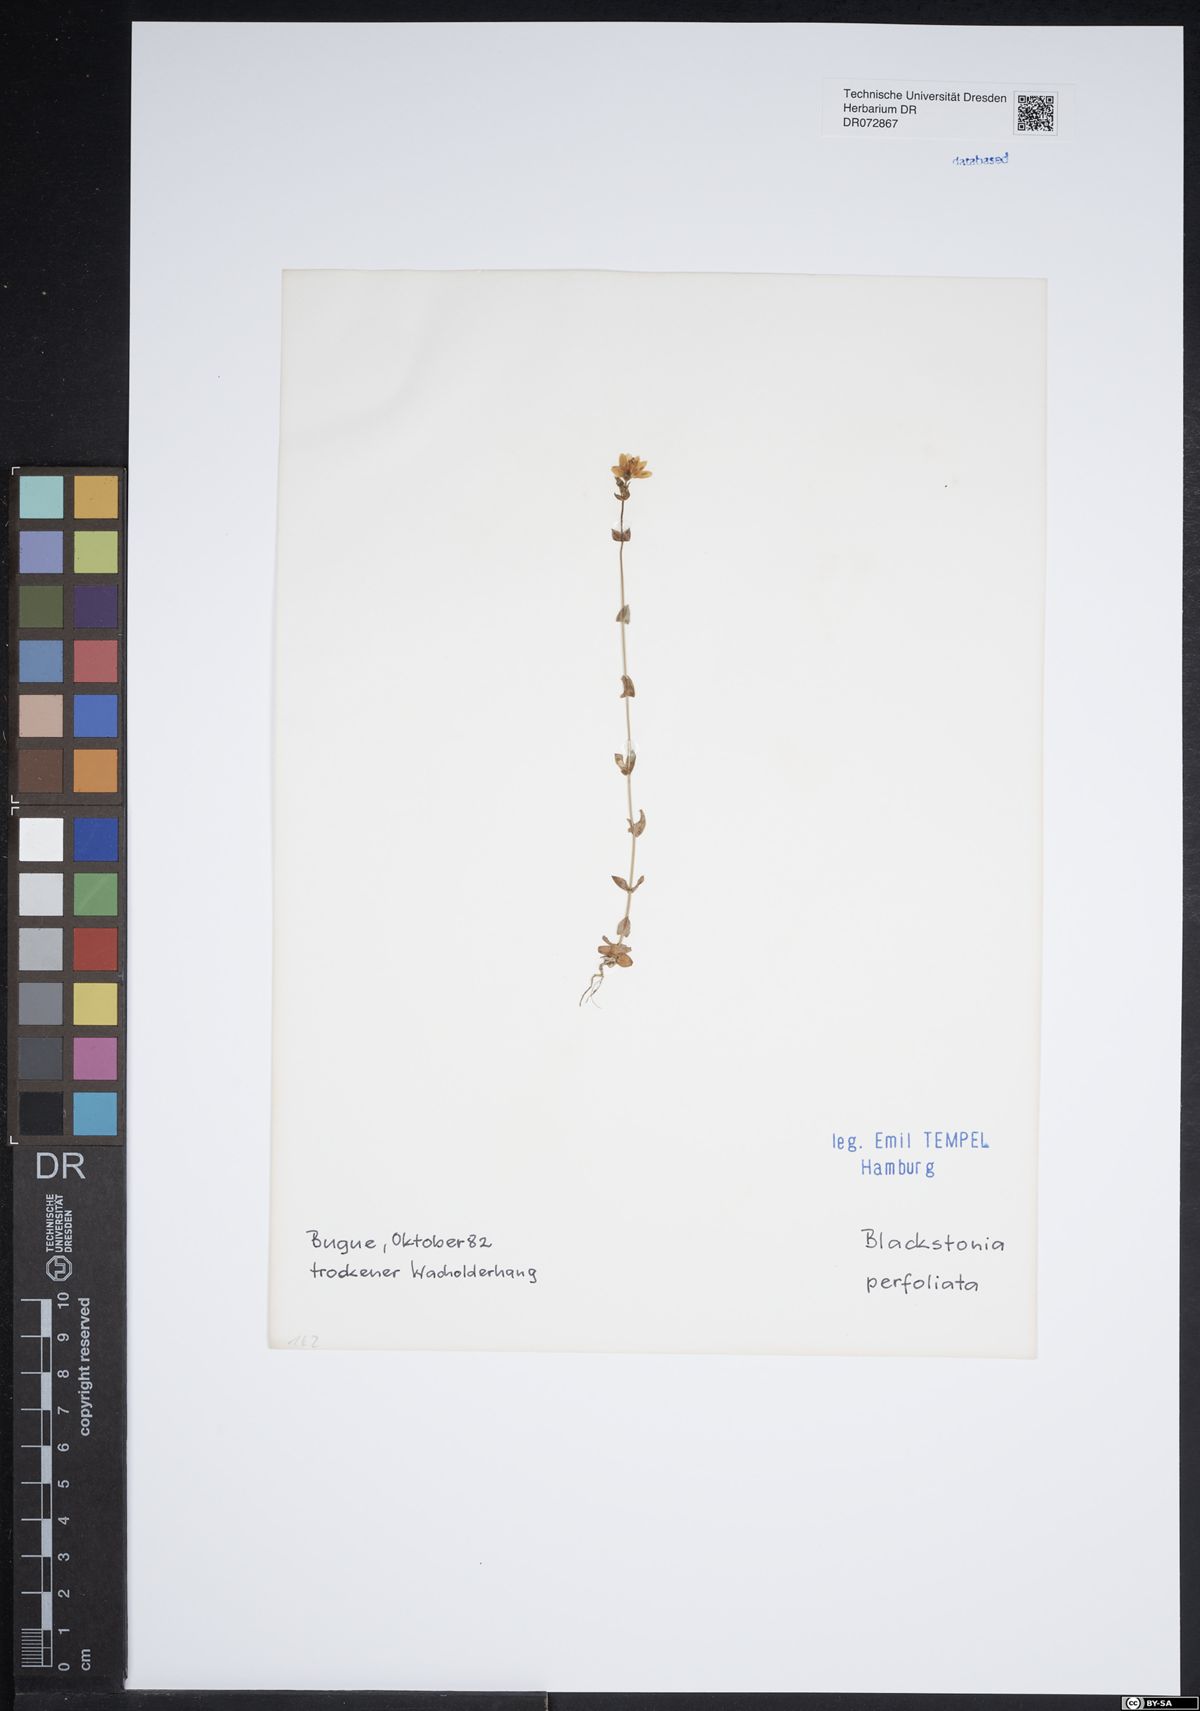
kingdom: Plantae
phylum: Tracheophyta
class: Magnoliopsida
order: Gentianales
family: Gentianaceae
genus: Blackstonia
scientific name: Blackstonia perfoliata
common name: Yellow-wort
